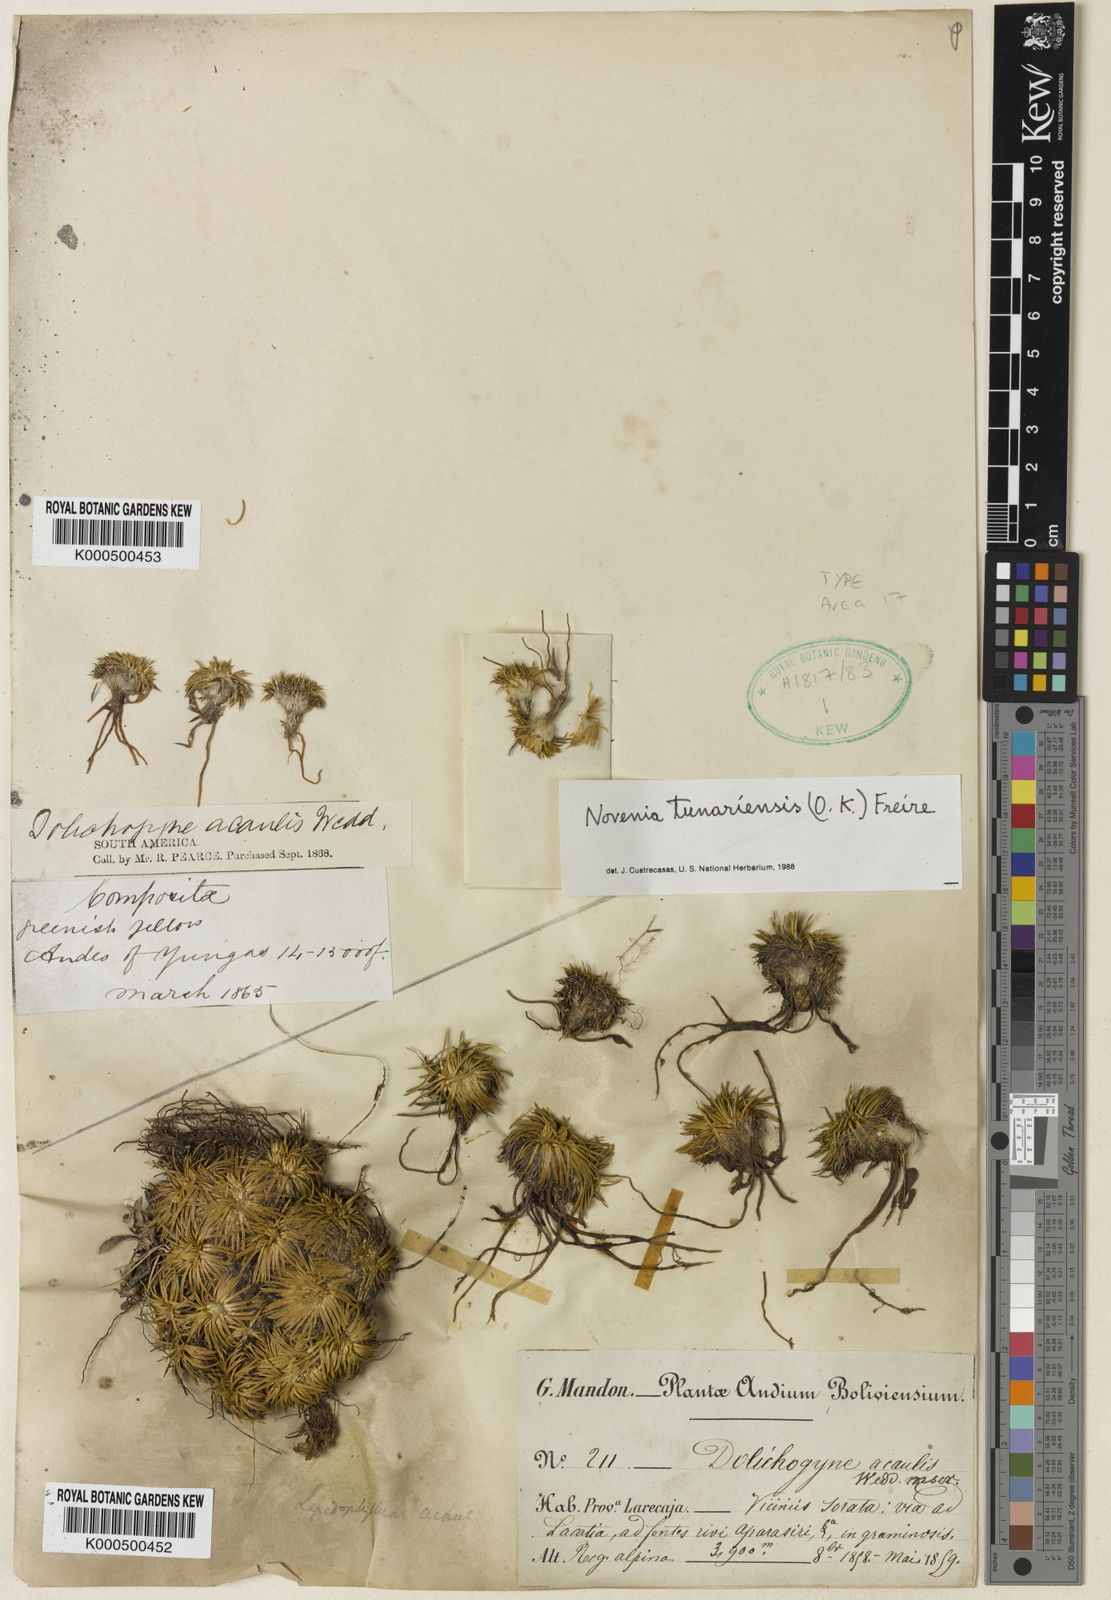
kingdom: Plantae
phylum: Tracheophyta
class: Magnoliopsida
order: Asterales
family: Asteraceae
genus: Novenia
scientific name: Novenia tunariensis
